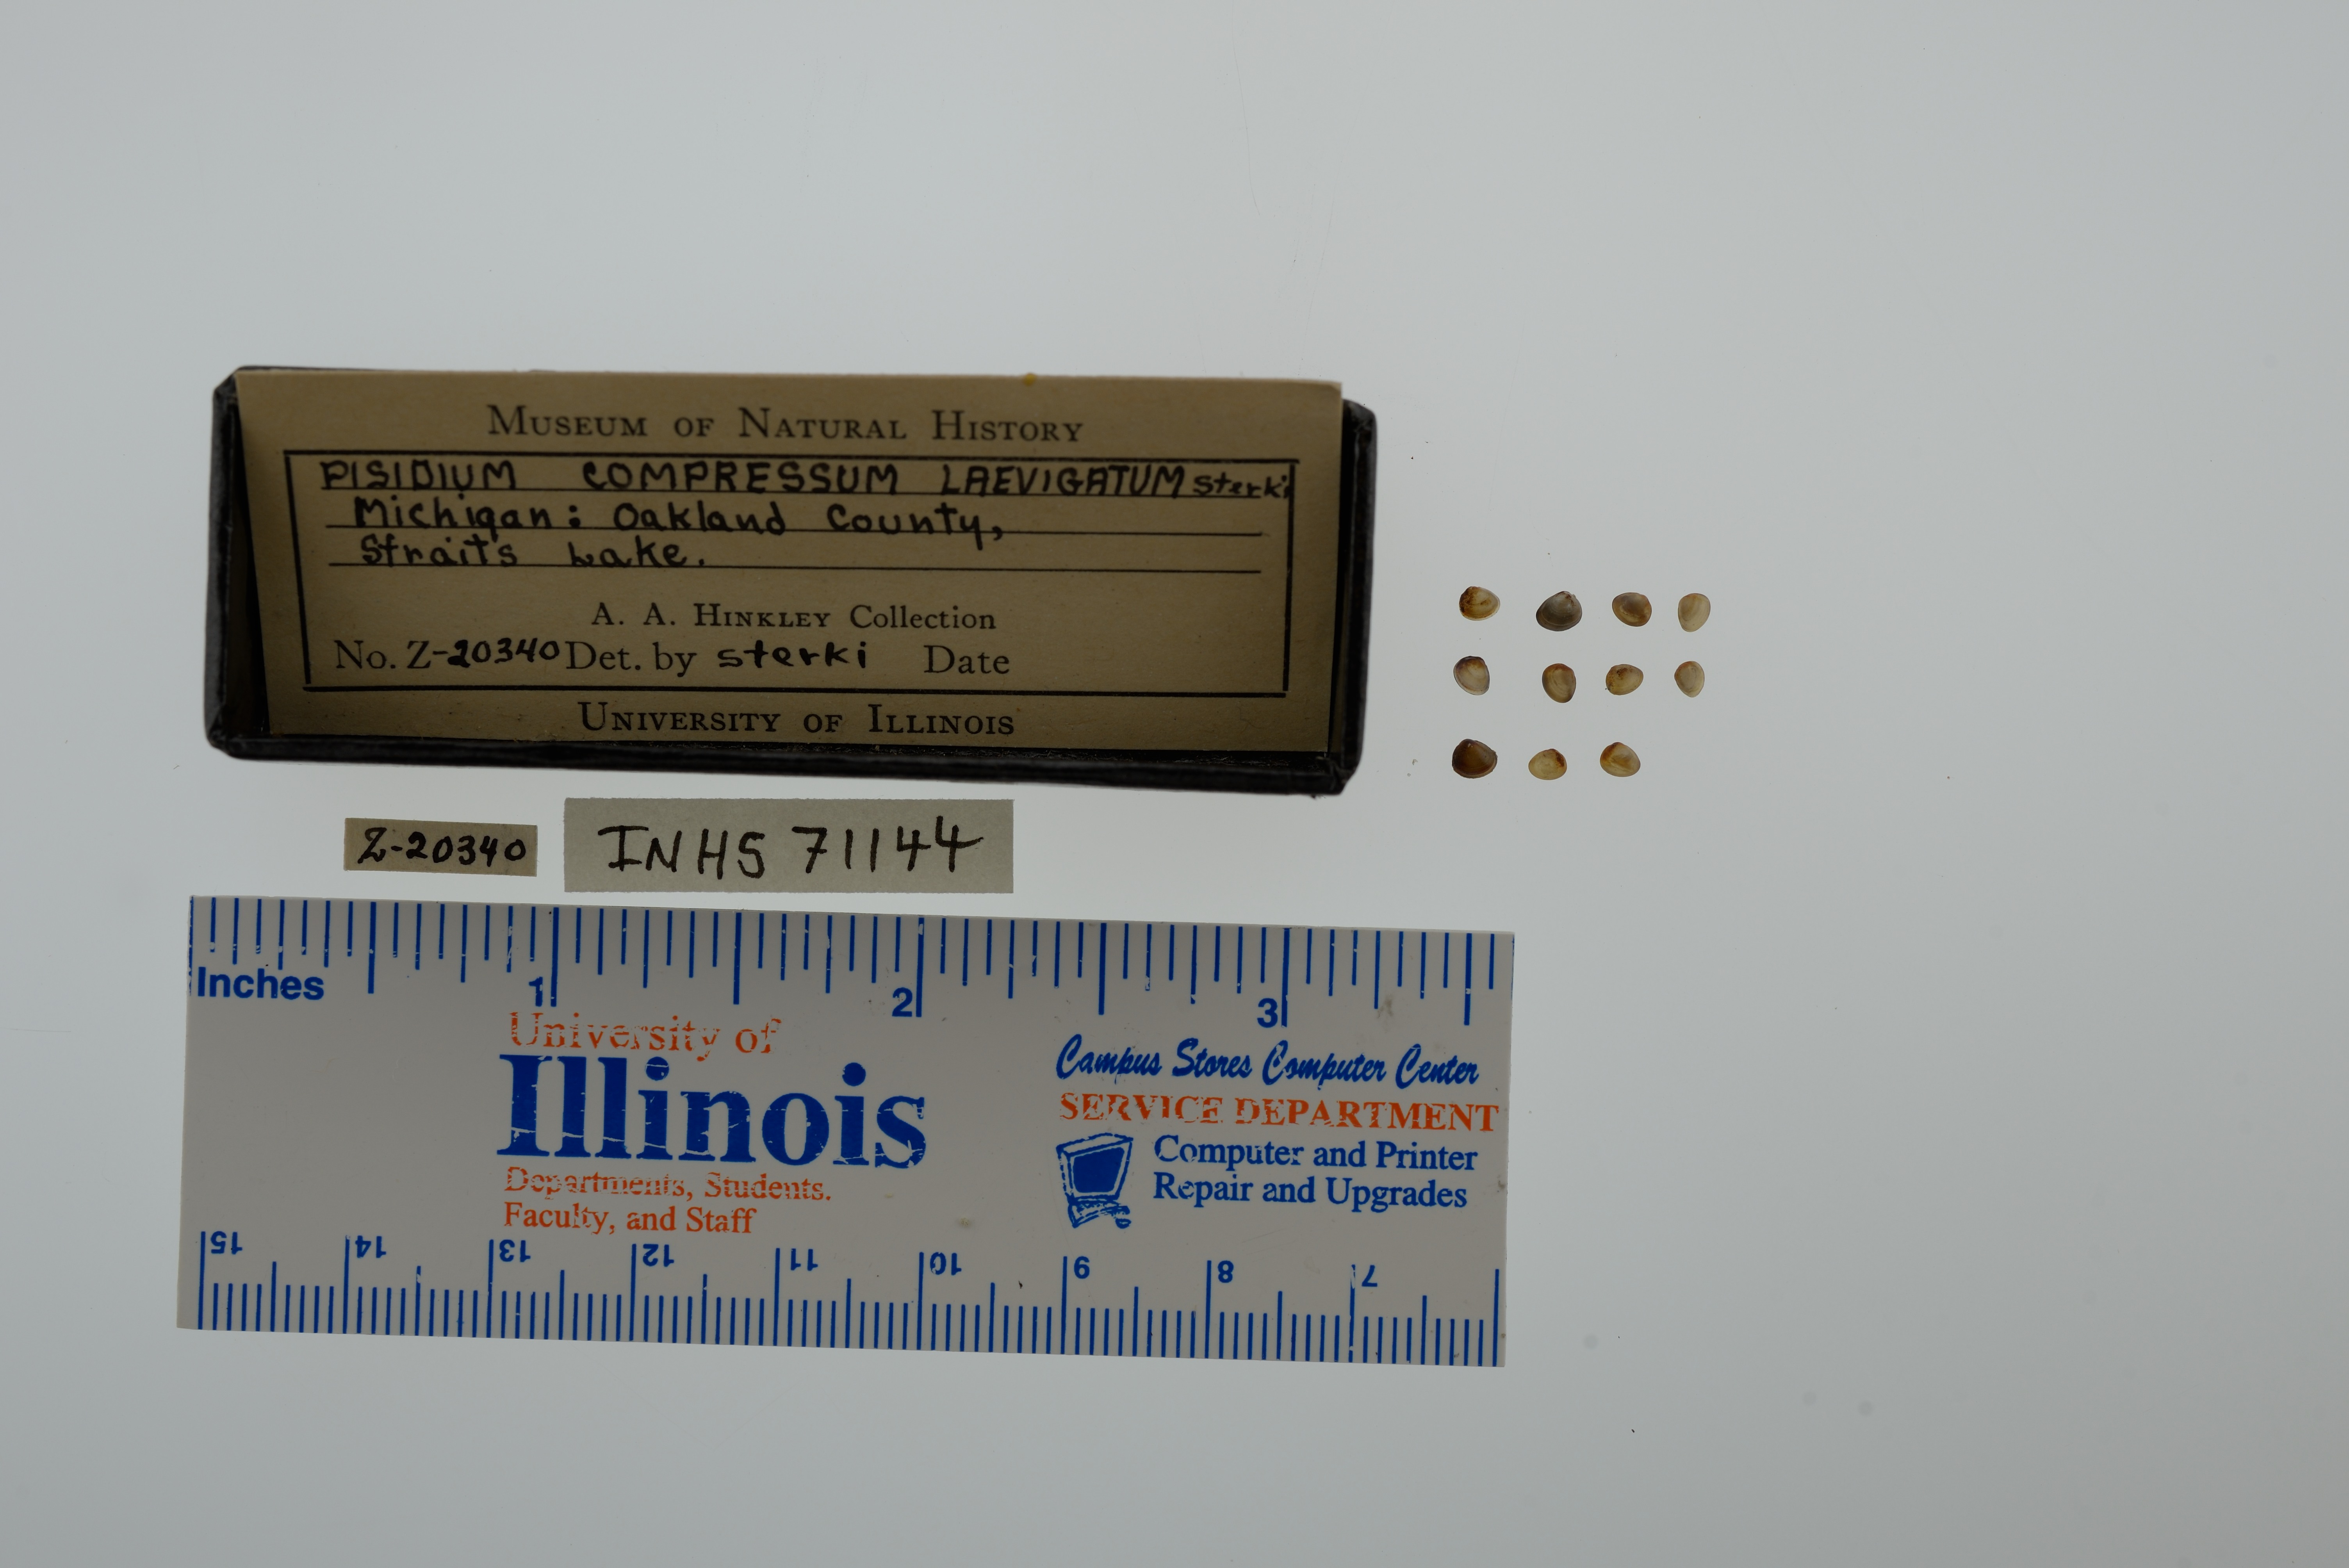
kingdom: Animalia
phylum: Mollusca
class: Bivalvia
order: Sphaeriida
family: Sphaeriidae
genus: Euglesa
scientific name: Euglesa compressa
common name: Ridgedbeak peaclam
